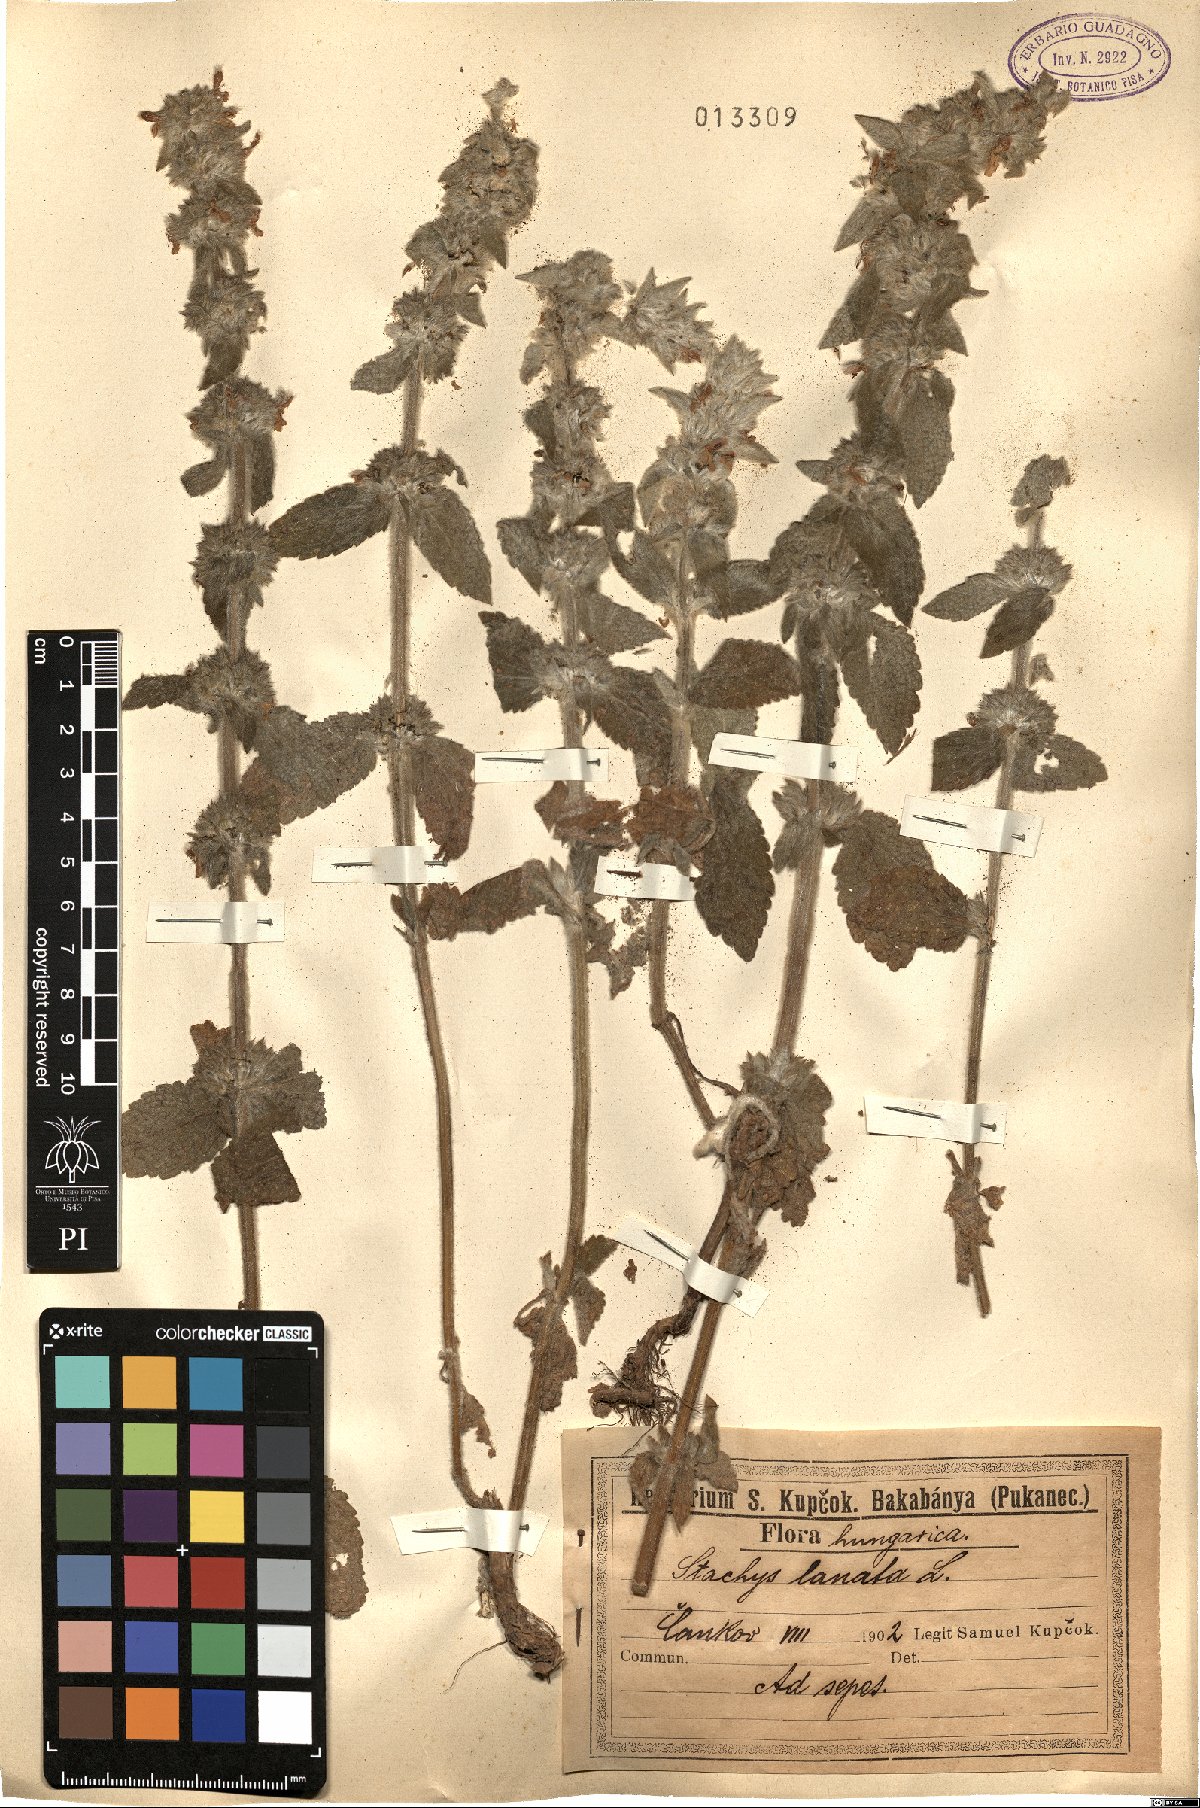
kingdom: Plantae
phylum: Tracheophyta
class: Magnoliopsida
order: Lamiales
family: Lamiaceae
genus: Stachys
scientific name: Stachys byzantina
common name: Lamb's-ear
